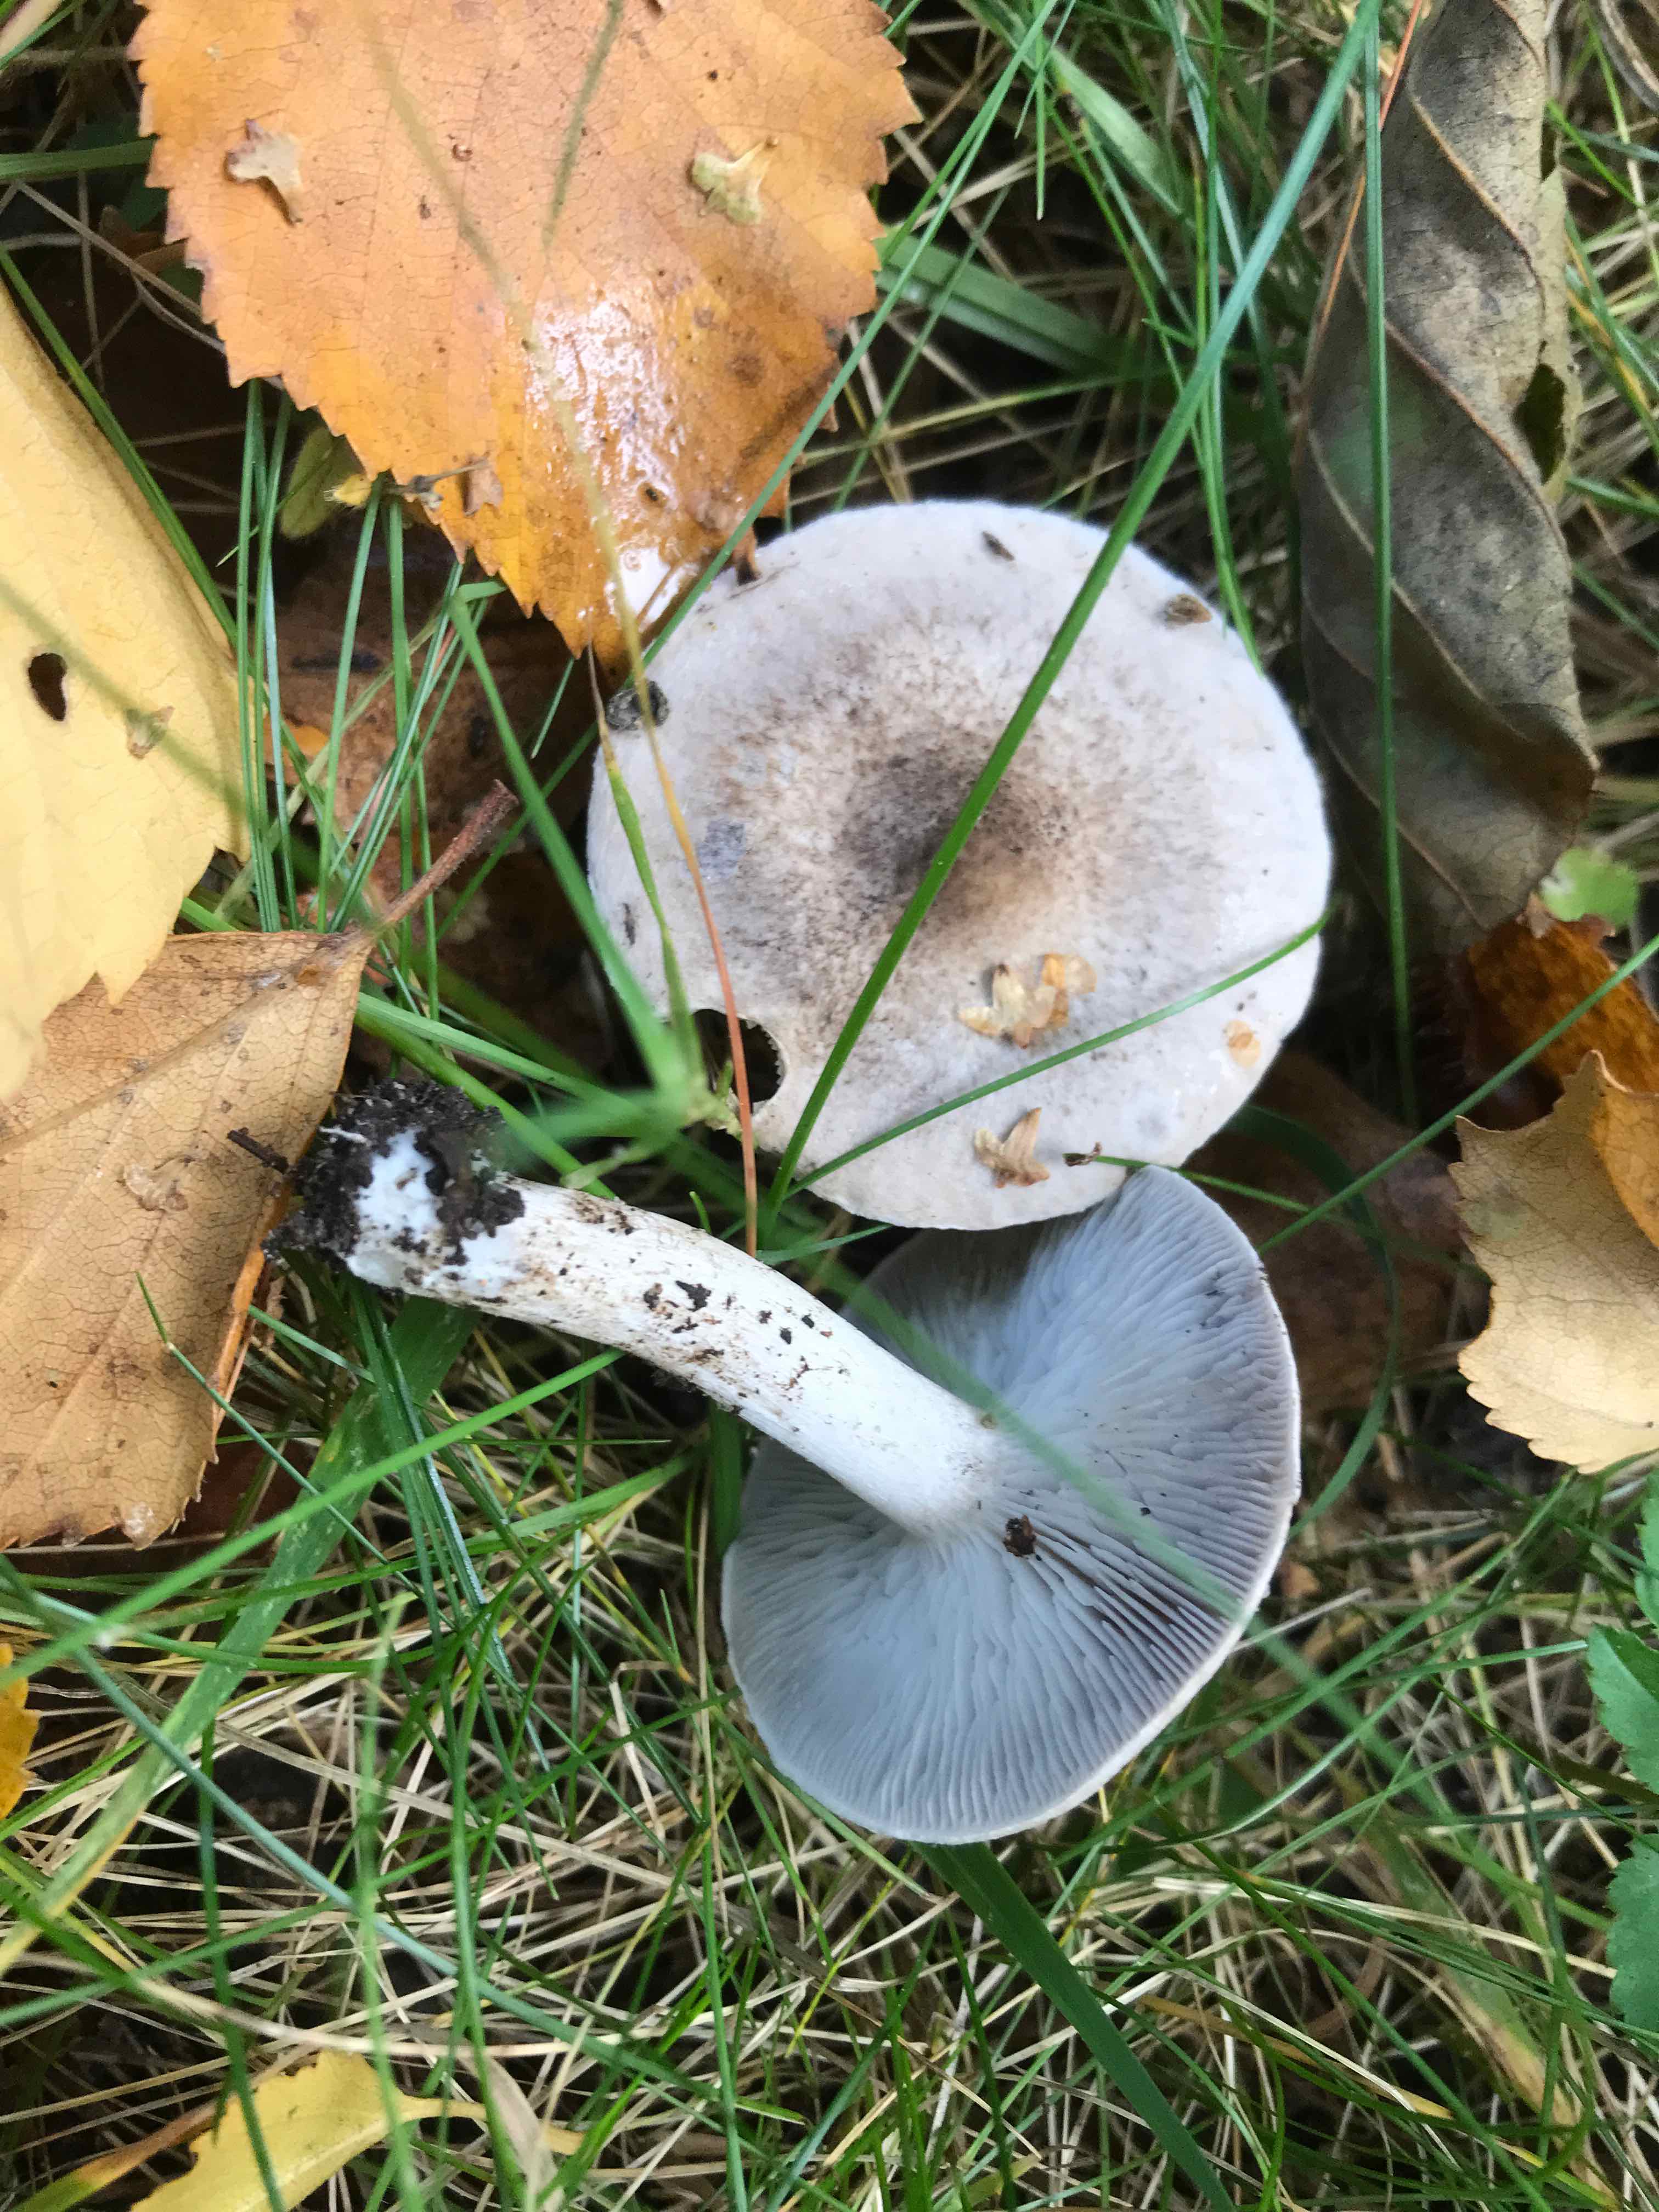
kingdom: Fungi
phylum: Basidiomycota
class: Agaricomycetes
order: Agaricales
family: Tricholomataceae
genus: Tricholoma
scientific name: Tricholoma
